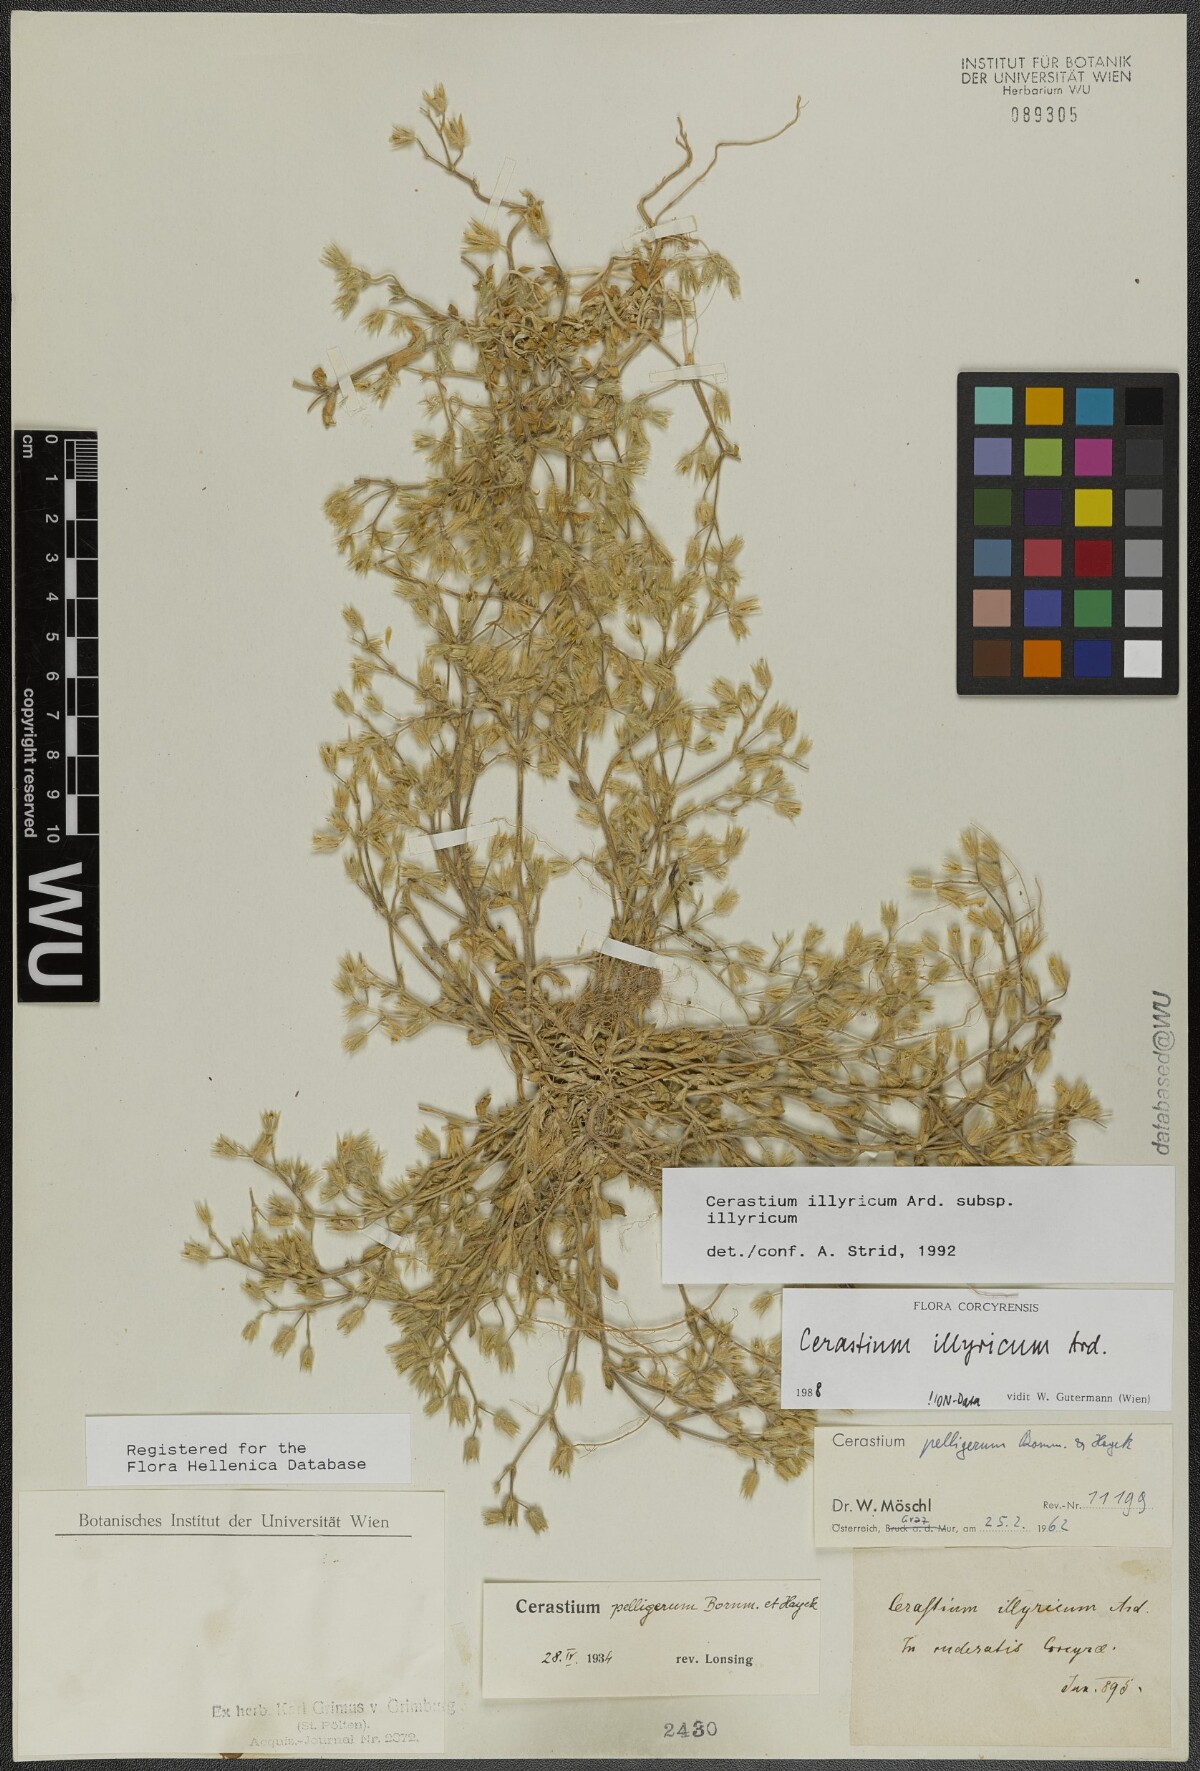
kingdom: Plantae
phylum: Tracheophyta
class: Magnoliopsida
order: Caryophyllales
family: Caryophyllaceae
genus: Cerastium
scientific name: Cerastium illyricum
